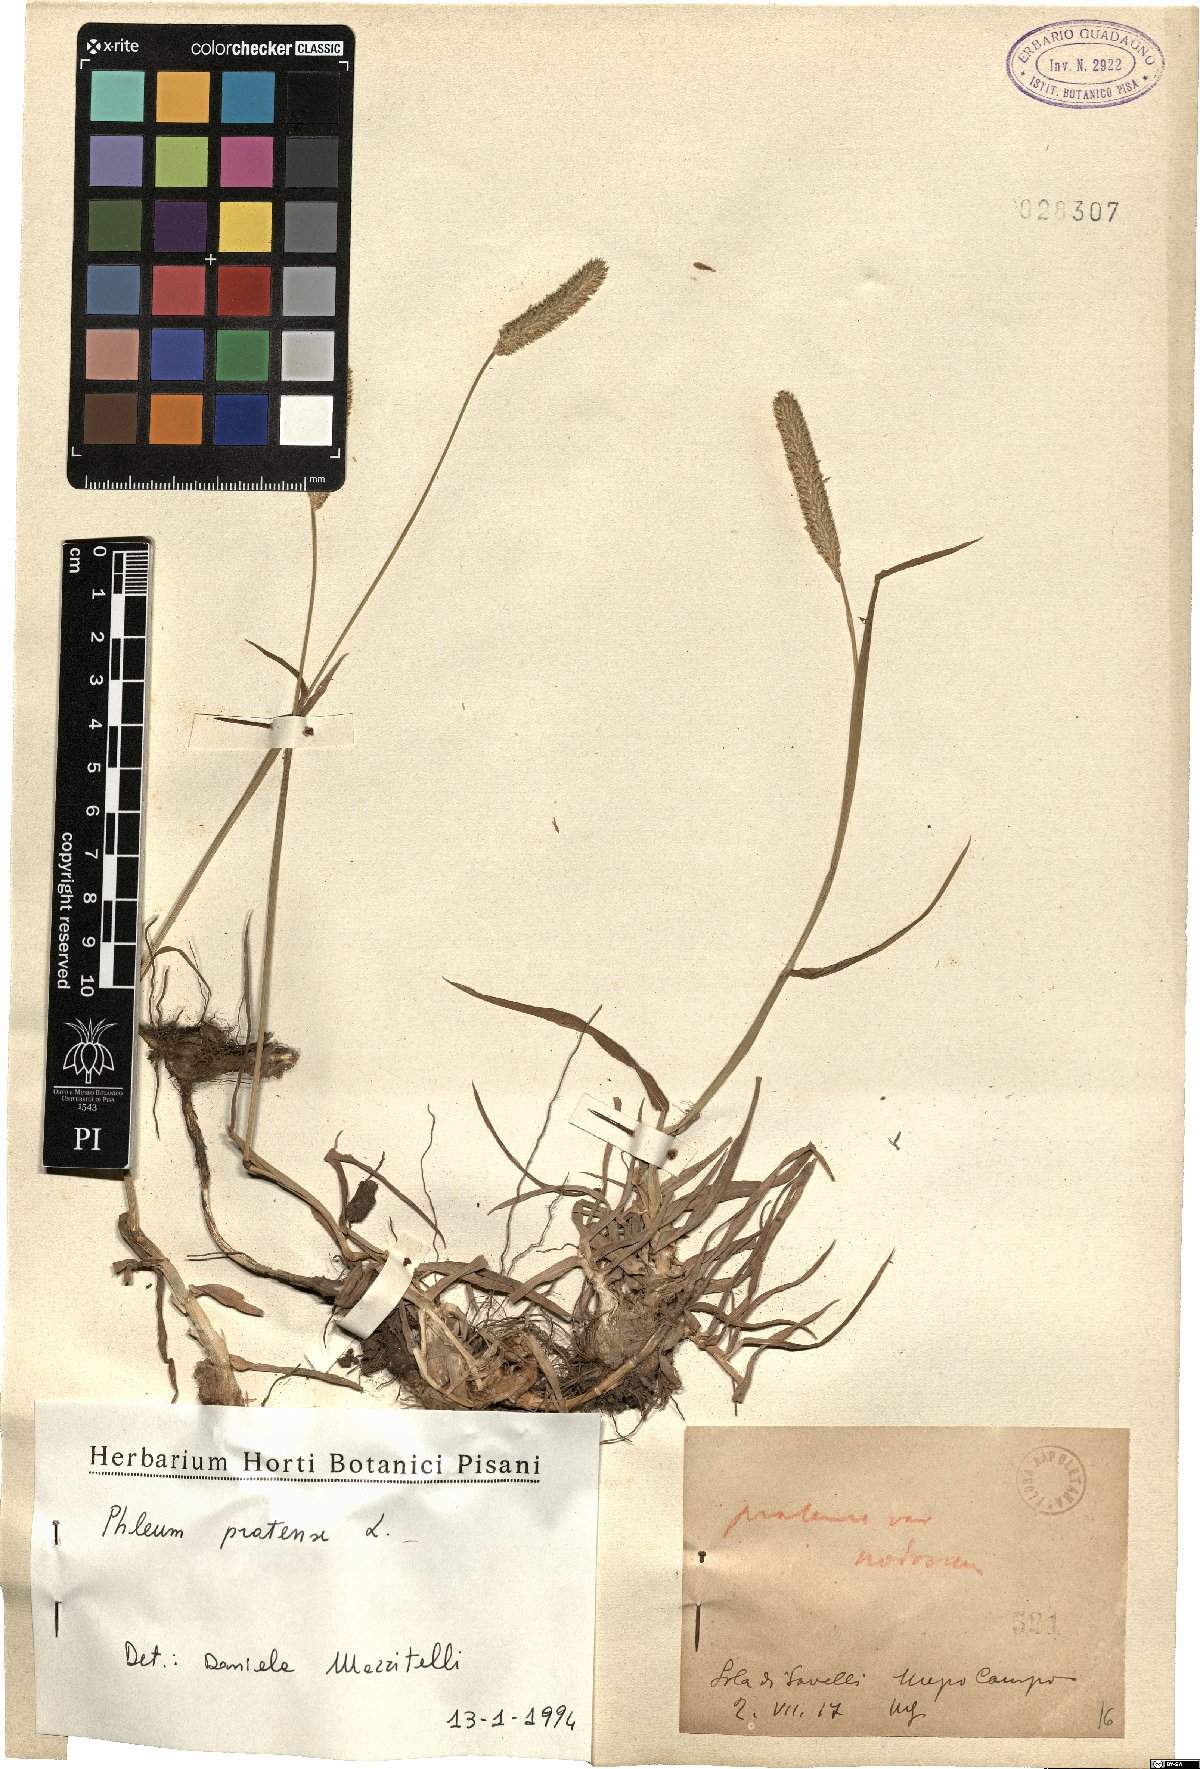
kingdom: Plantae
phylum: Tracheophyta
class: Liliopsida
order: Poales
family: Poaceae
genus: Phleum
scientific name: Phleum pratense
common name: Timothy grass
